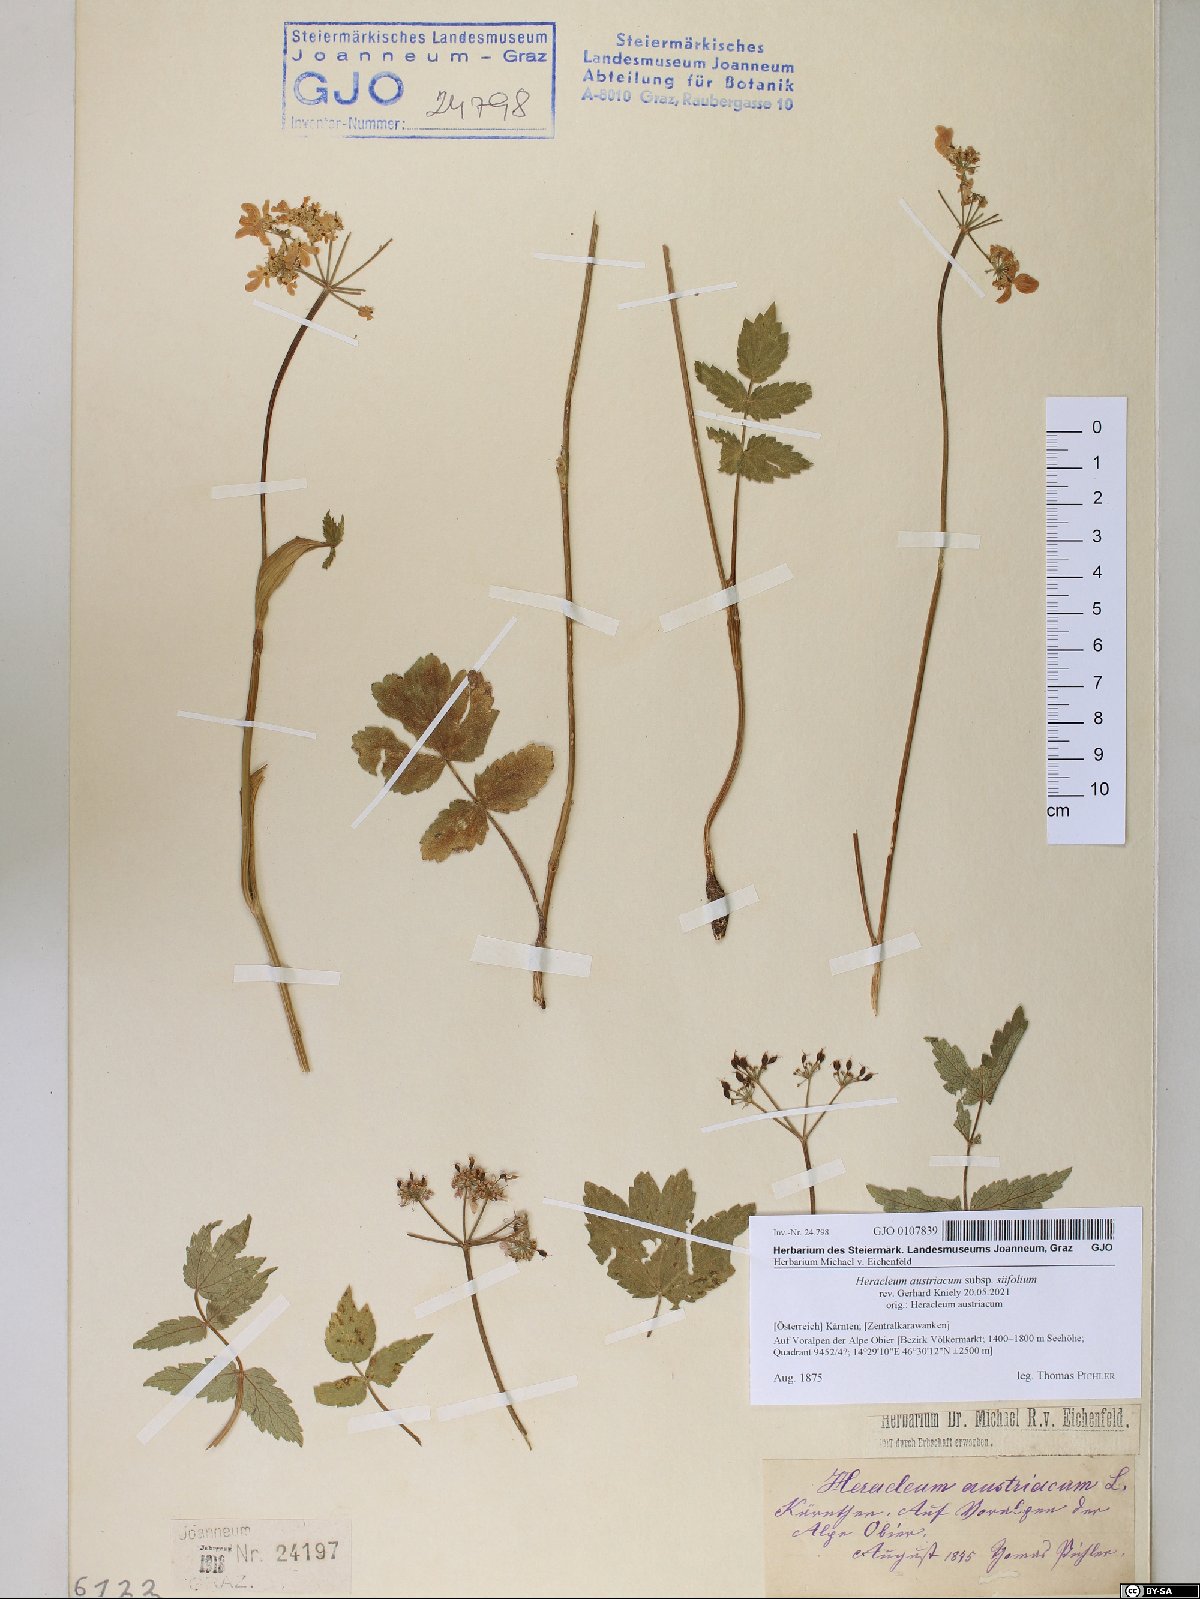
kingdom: Plantae
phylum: Tracheophyta
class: Magnoliopsida
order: Apiales
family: Apiaceae
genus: Heracleum
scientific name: Heracleum austriacum
